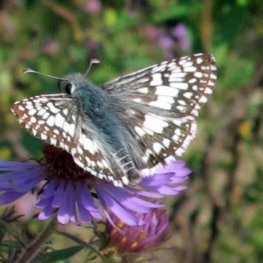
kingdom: Animalia
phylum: Arthropoda
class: Insecta
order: Lepidoptera
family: Hesperiidae
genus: Pyrgus
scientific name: Pyrgus communis
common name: Common Checkered-Skipper
